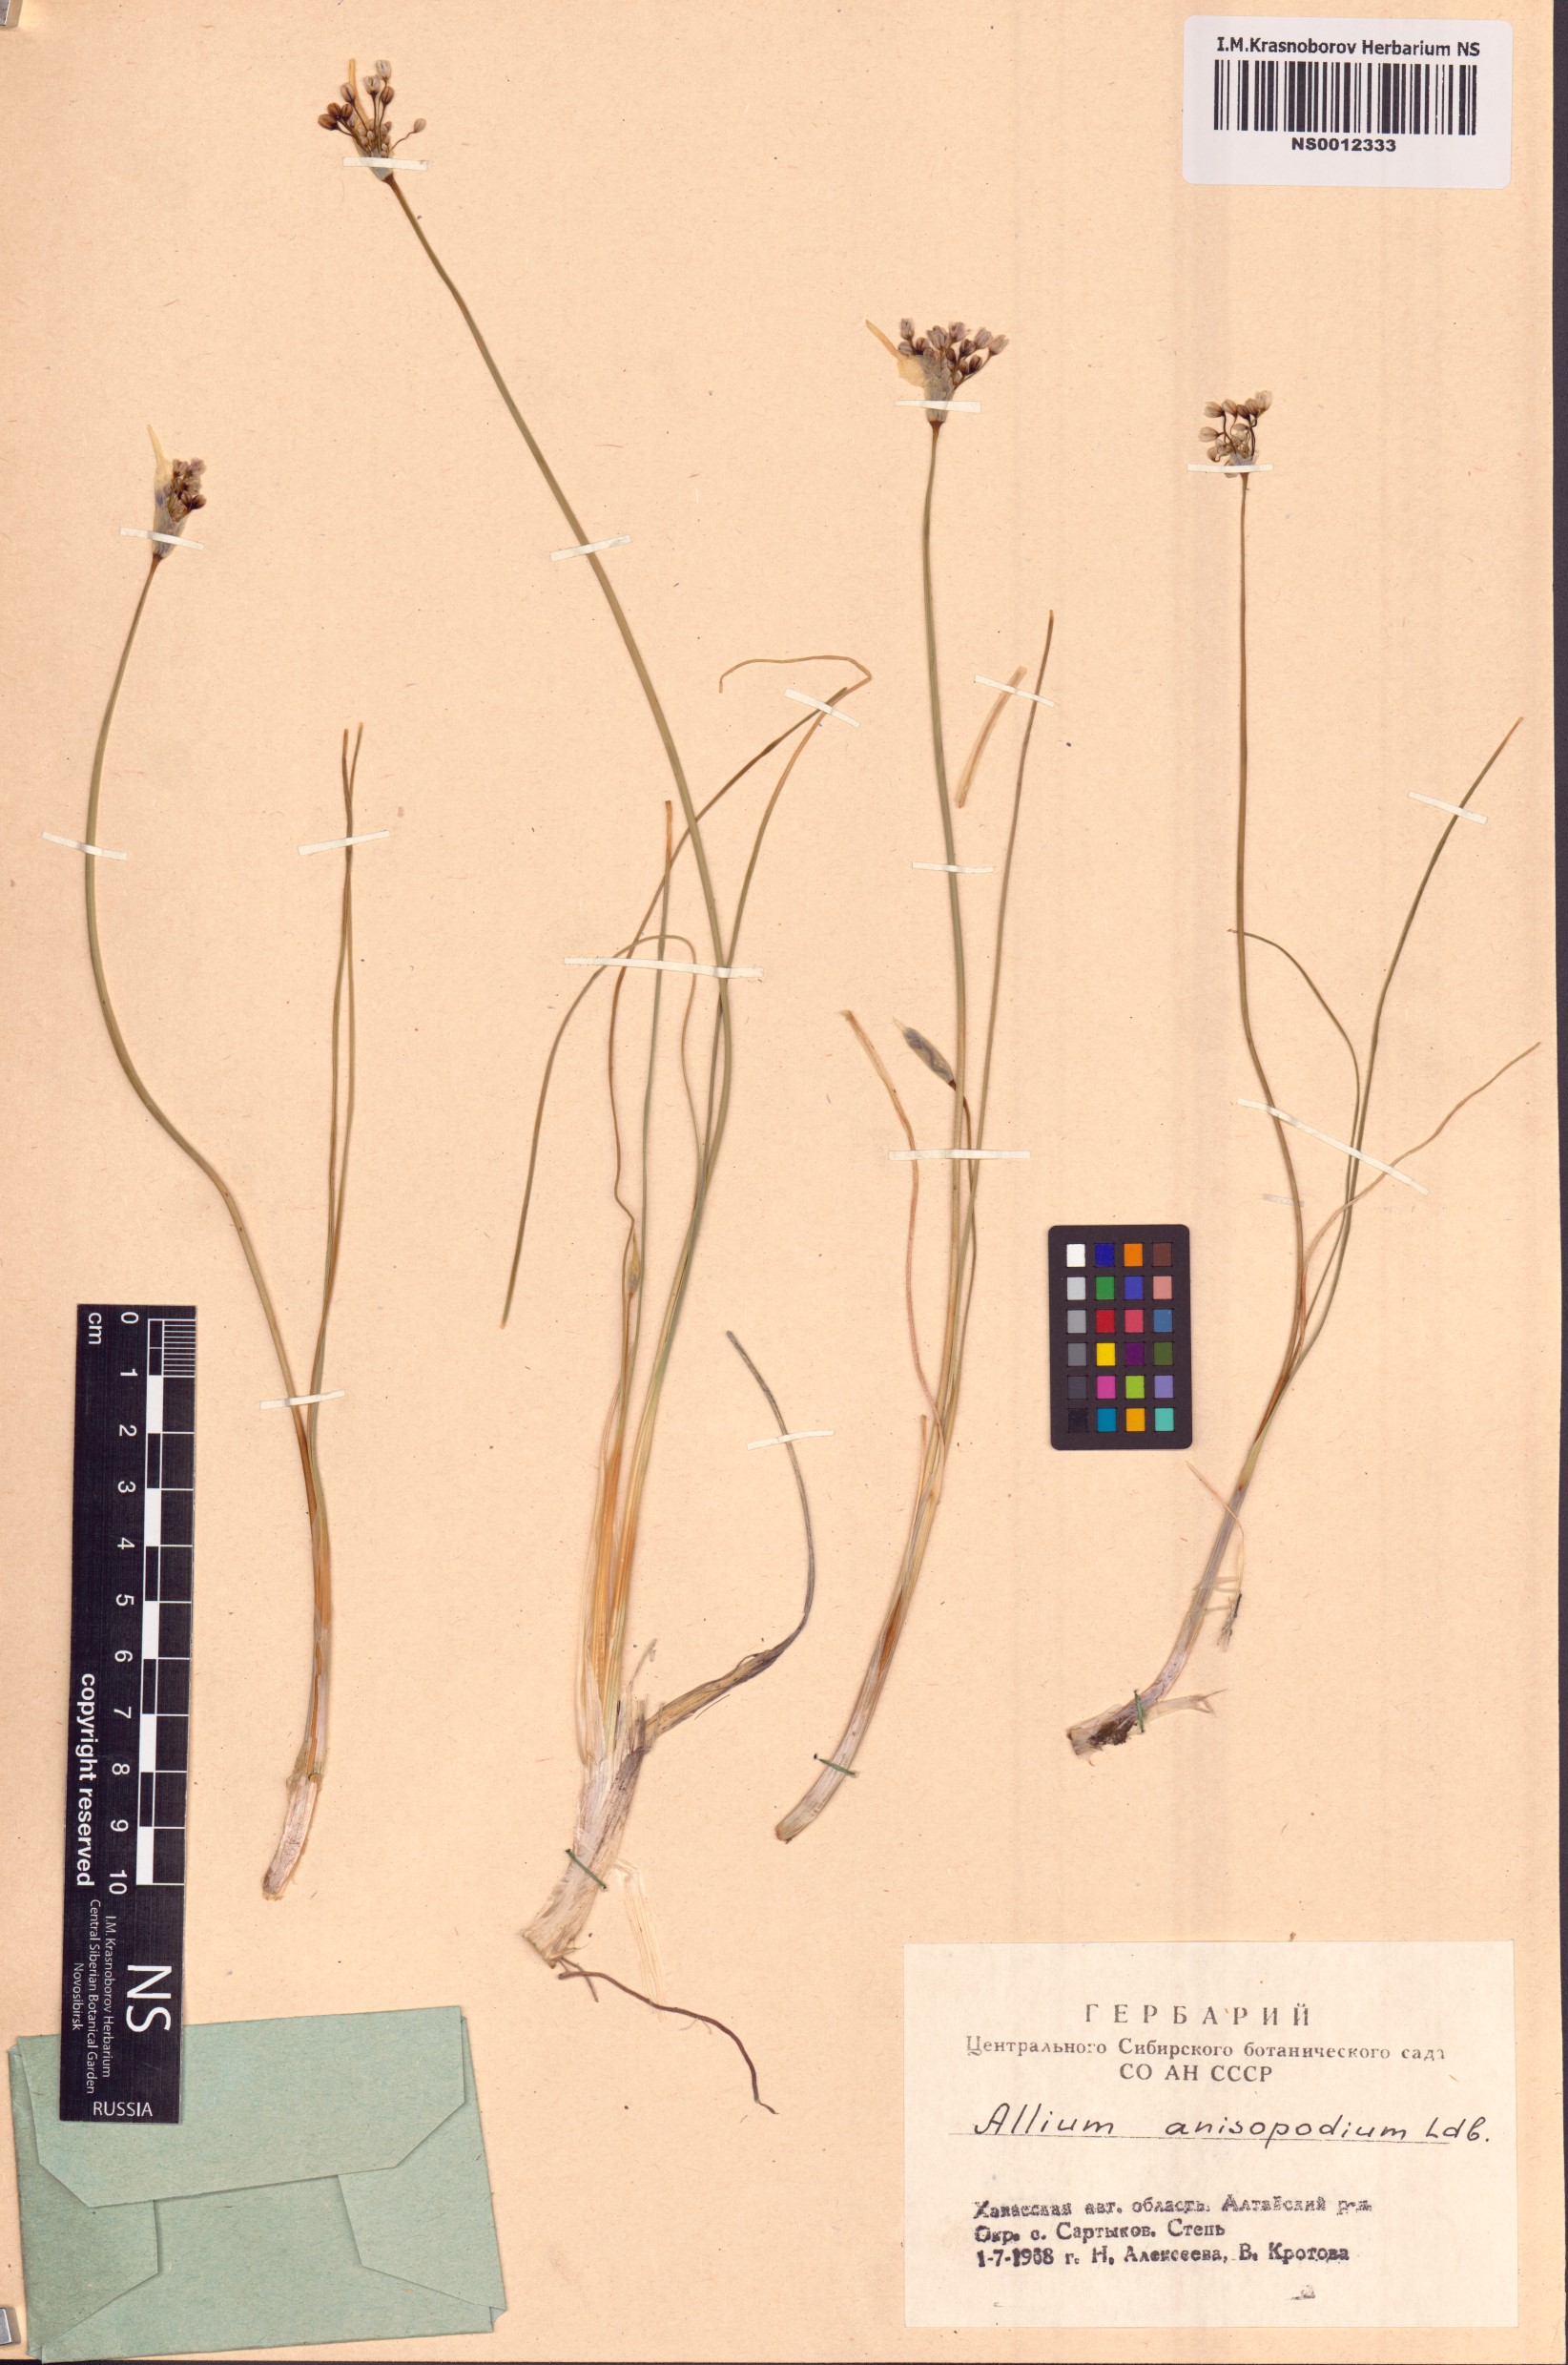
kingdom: Plantae
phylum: Tracheophyta
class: Liliopsida
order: Asparagales
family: Amaryllidaceae
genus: Allium
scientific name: Allium anisopodium
